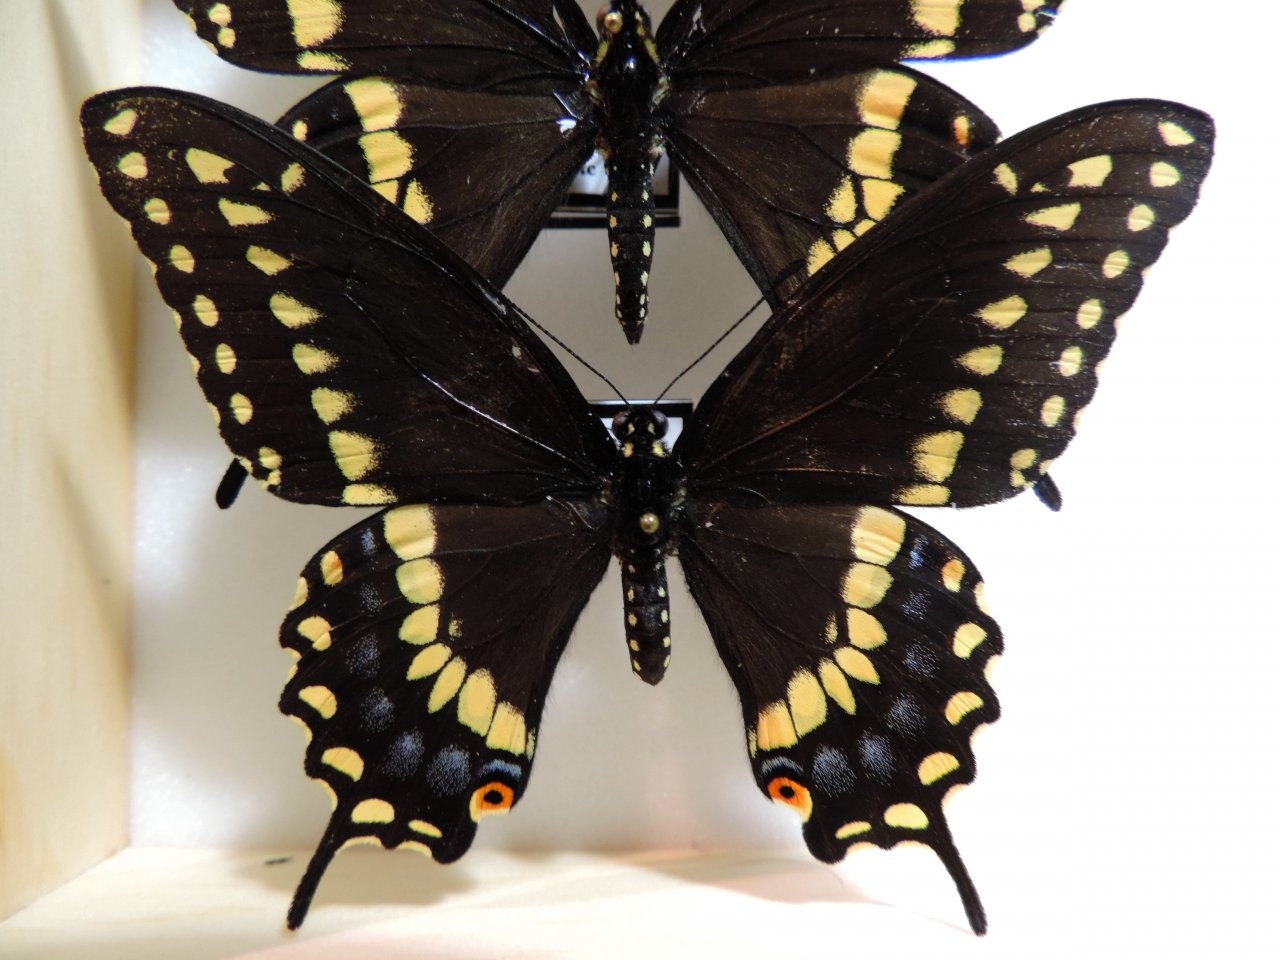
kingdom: Animalia
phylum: Arthropoda
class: Insecta
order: Lepidoptera
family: Papilionidae
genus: Papilio
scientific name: Papilio polyxenes
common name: Black Swallowtail
